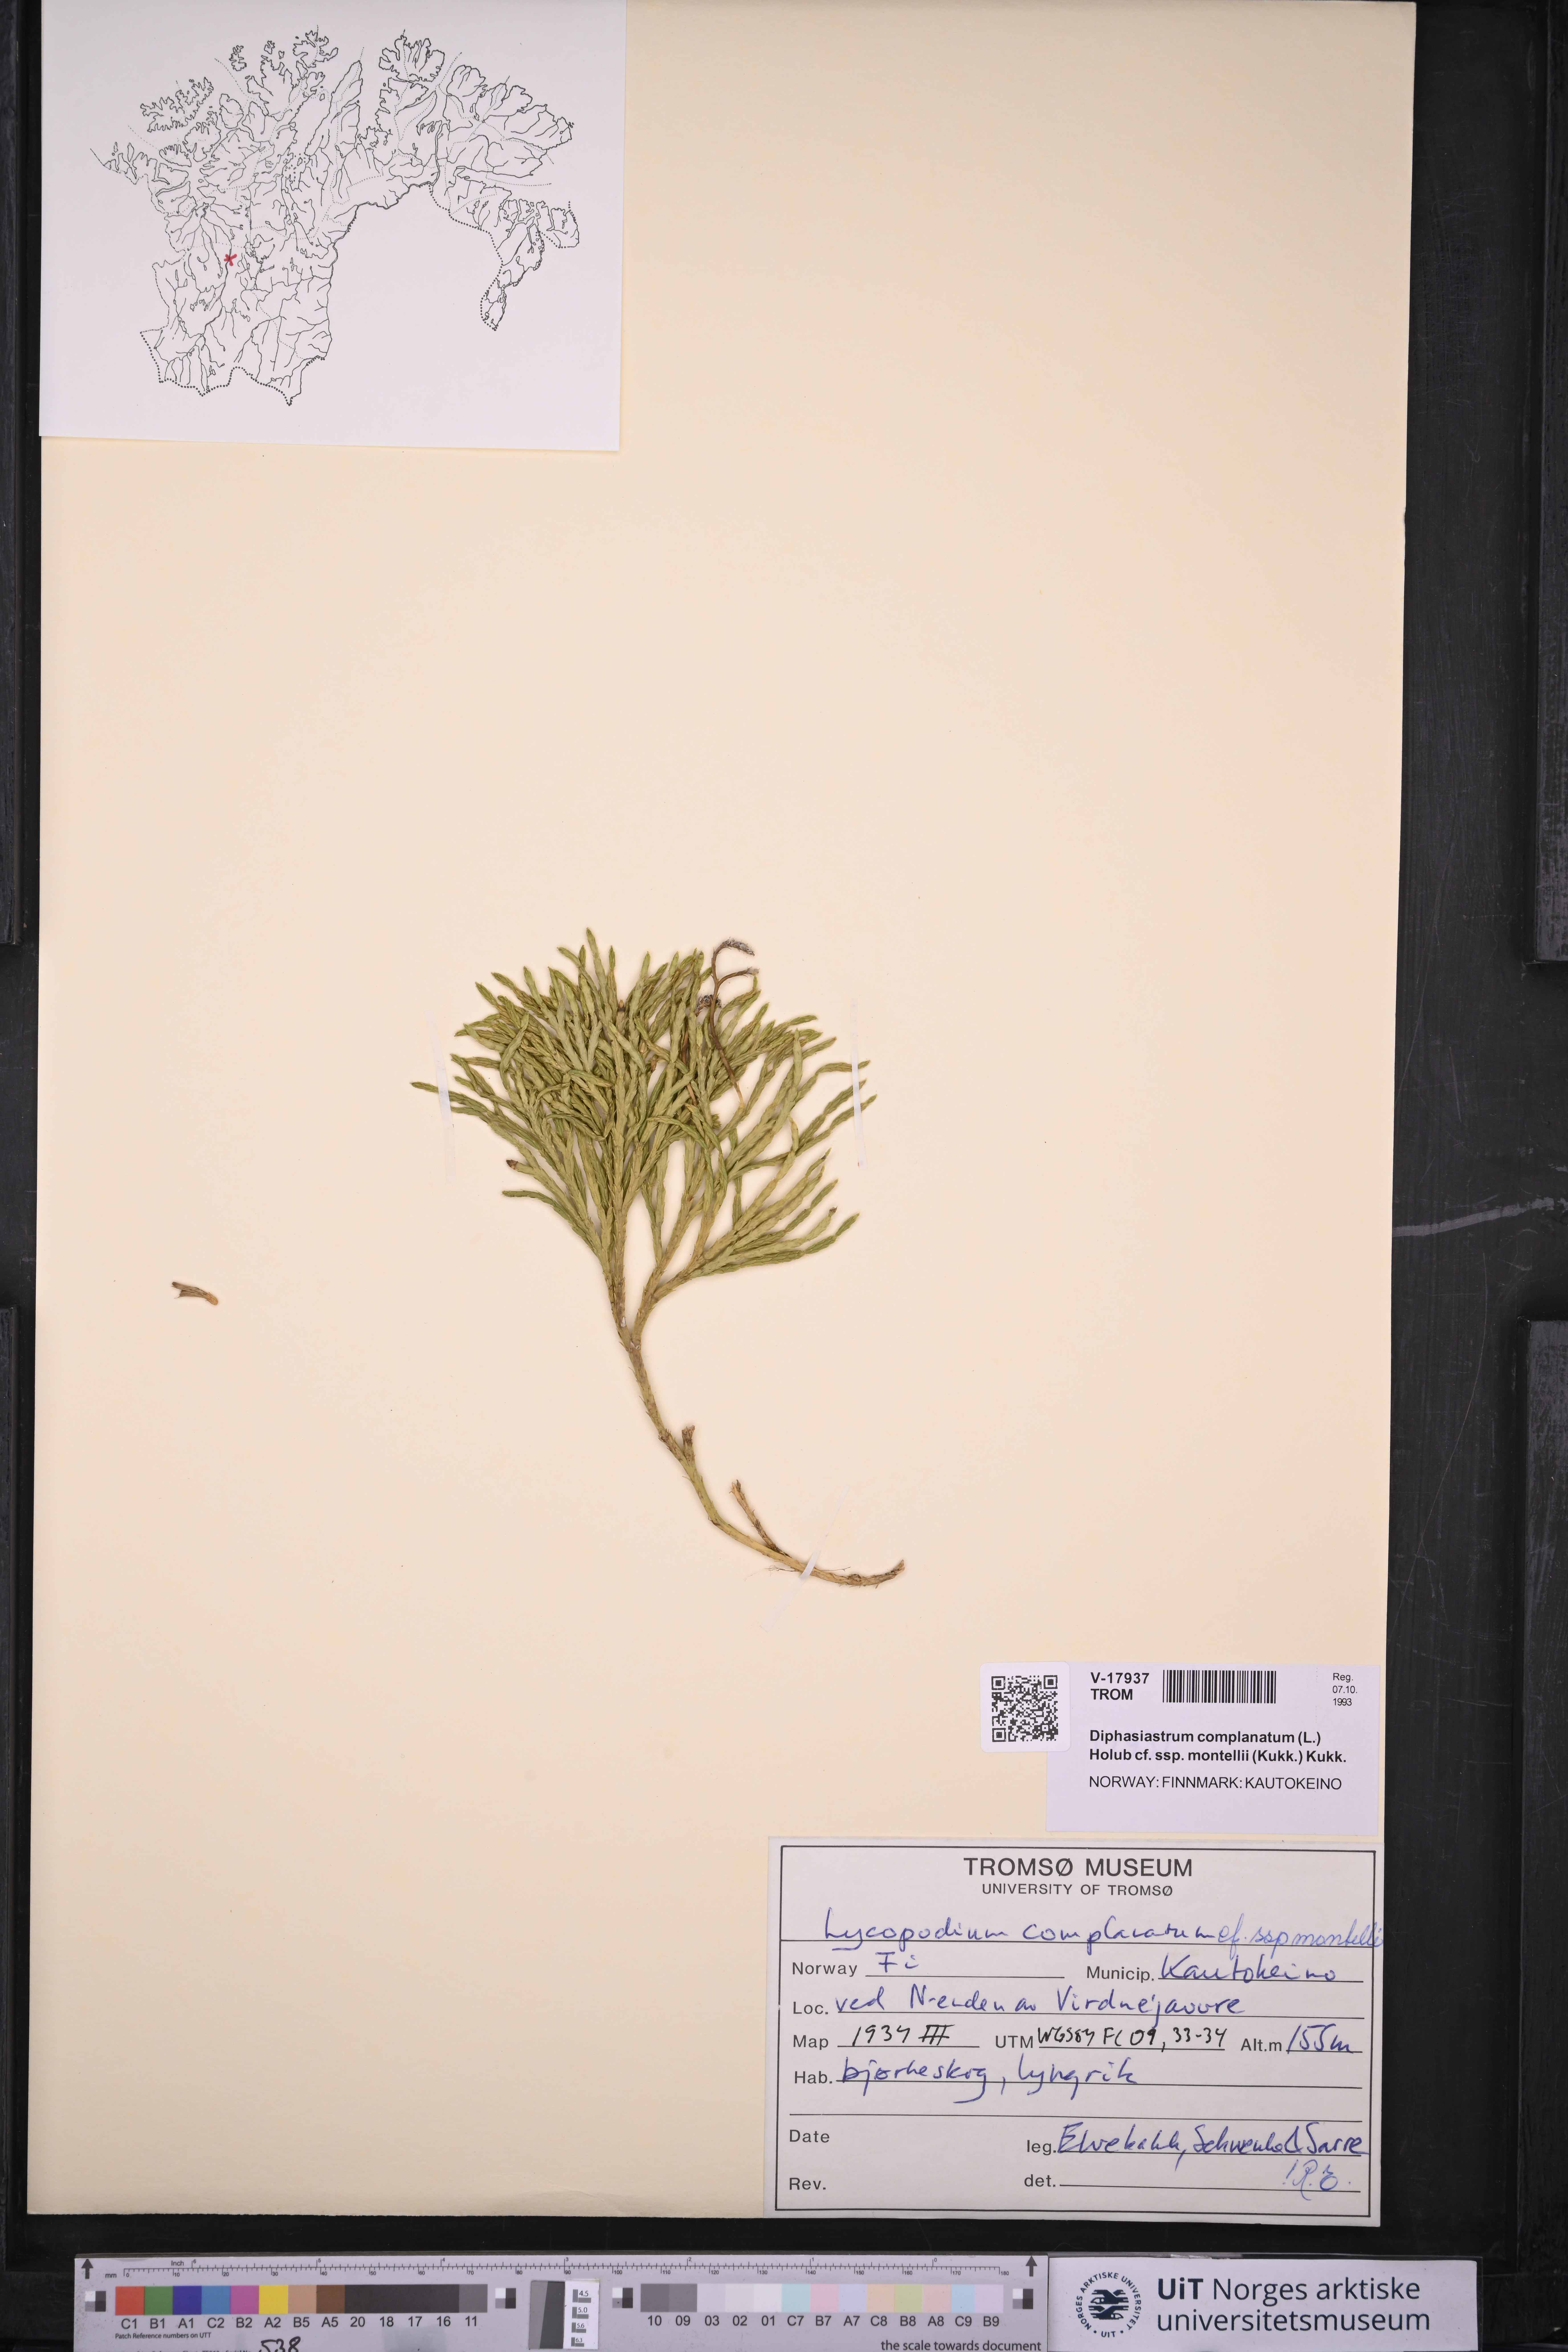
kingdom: Plantae
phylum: Tracheophyta
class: Lycopodiopsida
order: Lycopodiales
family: Lycopodiaceae
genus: Diphasiastrum
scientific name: Diphasiastrum complanatum
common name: Northern running-pine
